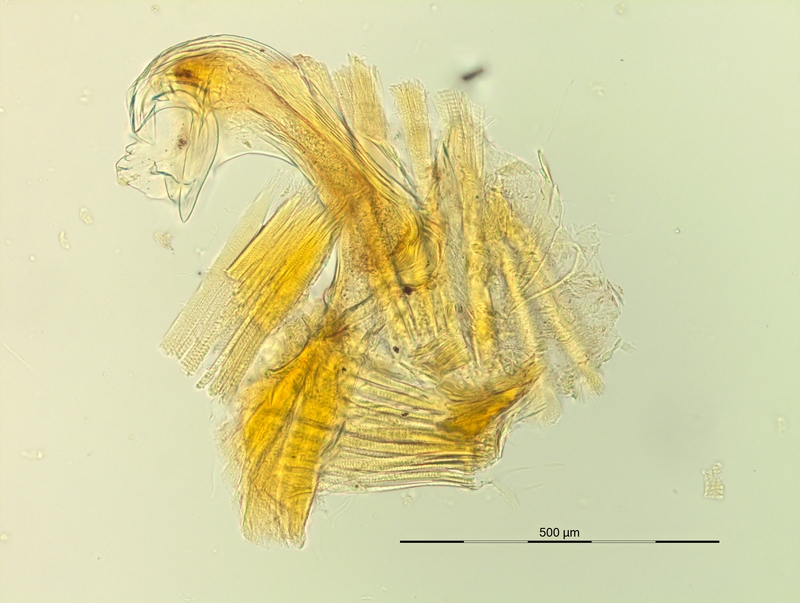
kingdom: Animalia
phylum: Arthropoda
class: Diplopoda
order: Chordeumatida
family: Craspedosomatidae
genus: Pyrgocyphosoma
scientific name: Pyrgocyphosoma aspidiorum
